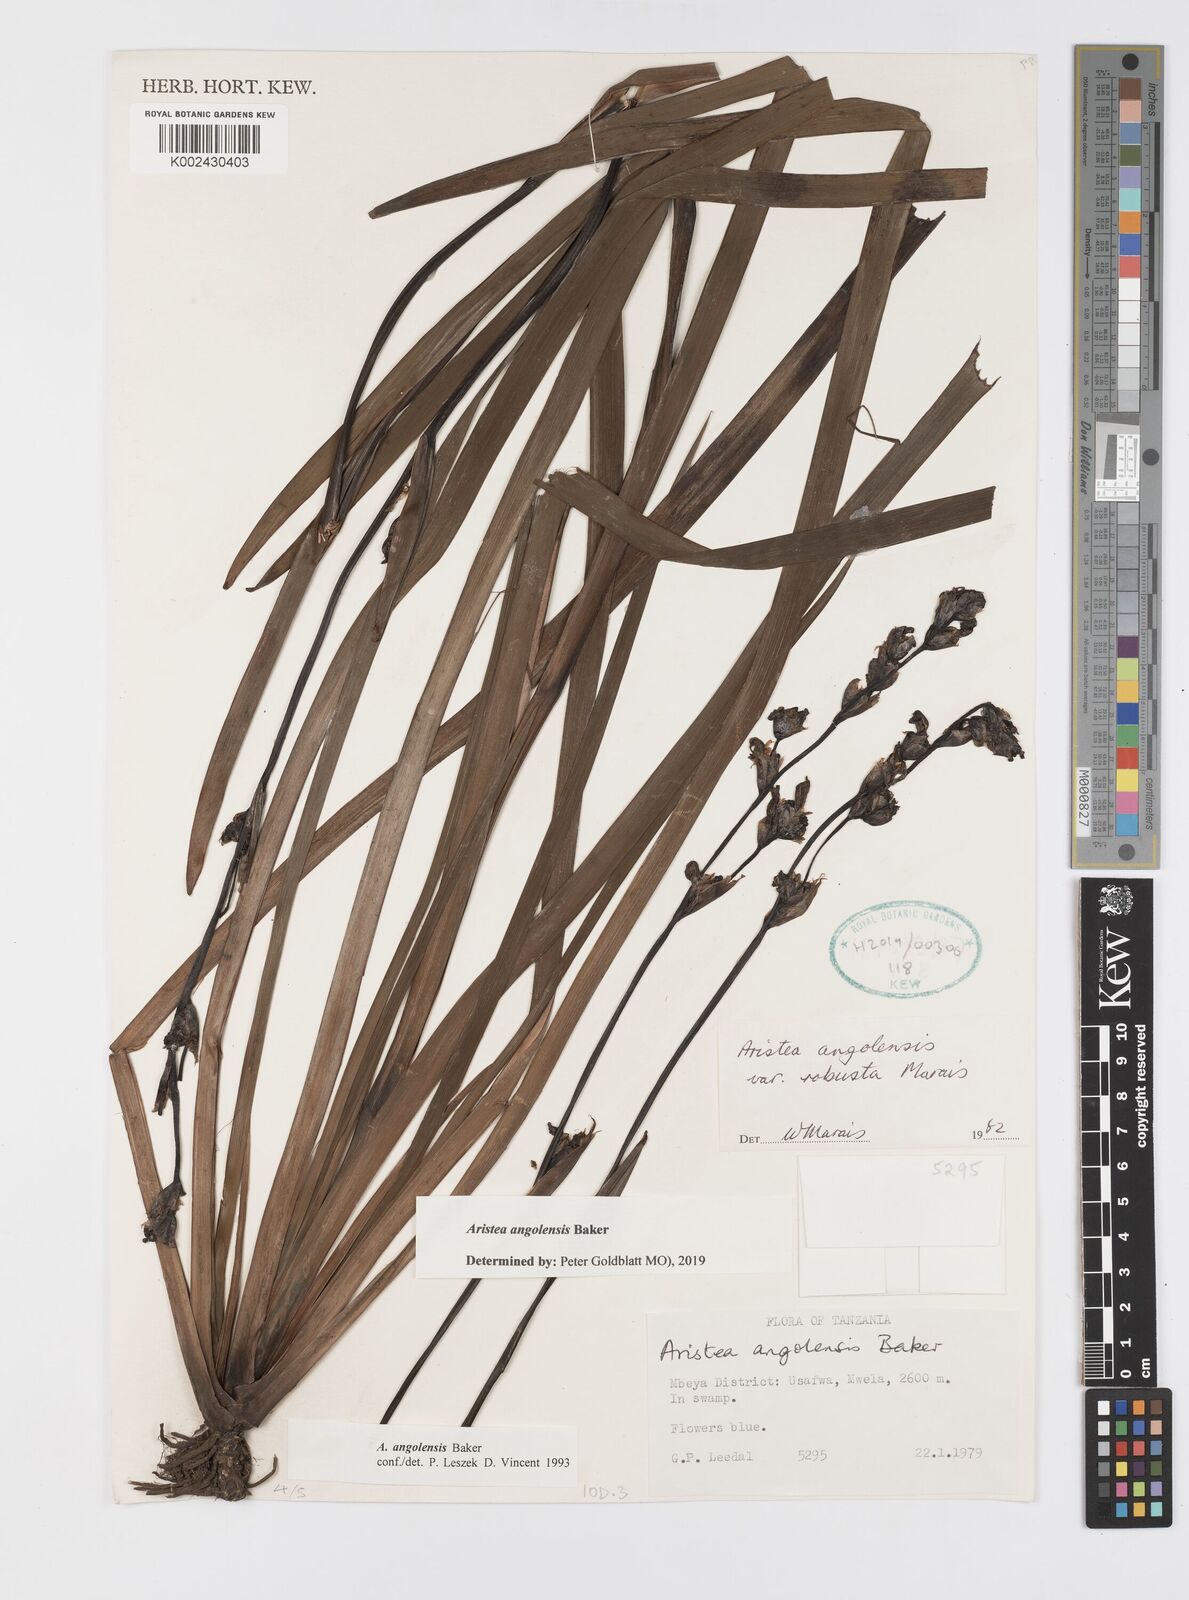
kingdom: Plantae
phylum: Tracheophyta
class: Liliopsida
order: Asparagales
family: Iridaceae
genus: Aristea
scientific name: Aristea angolensis
